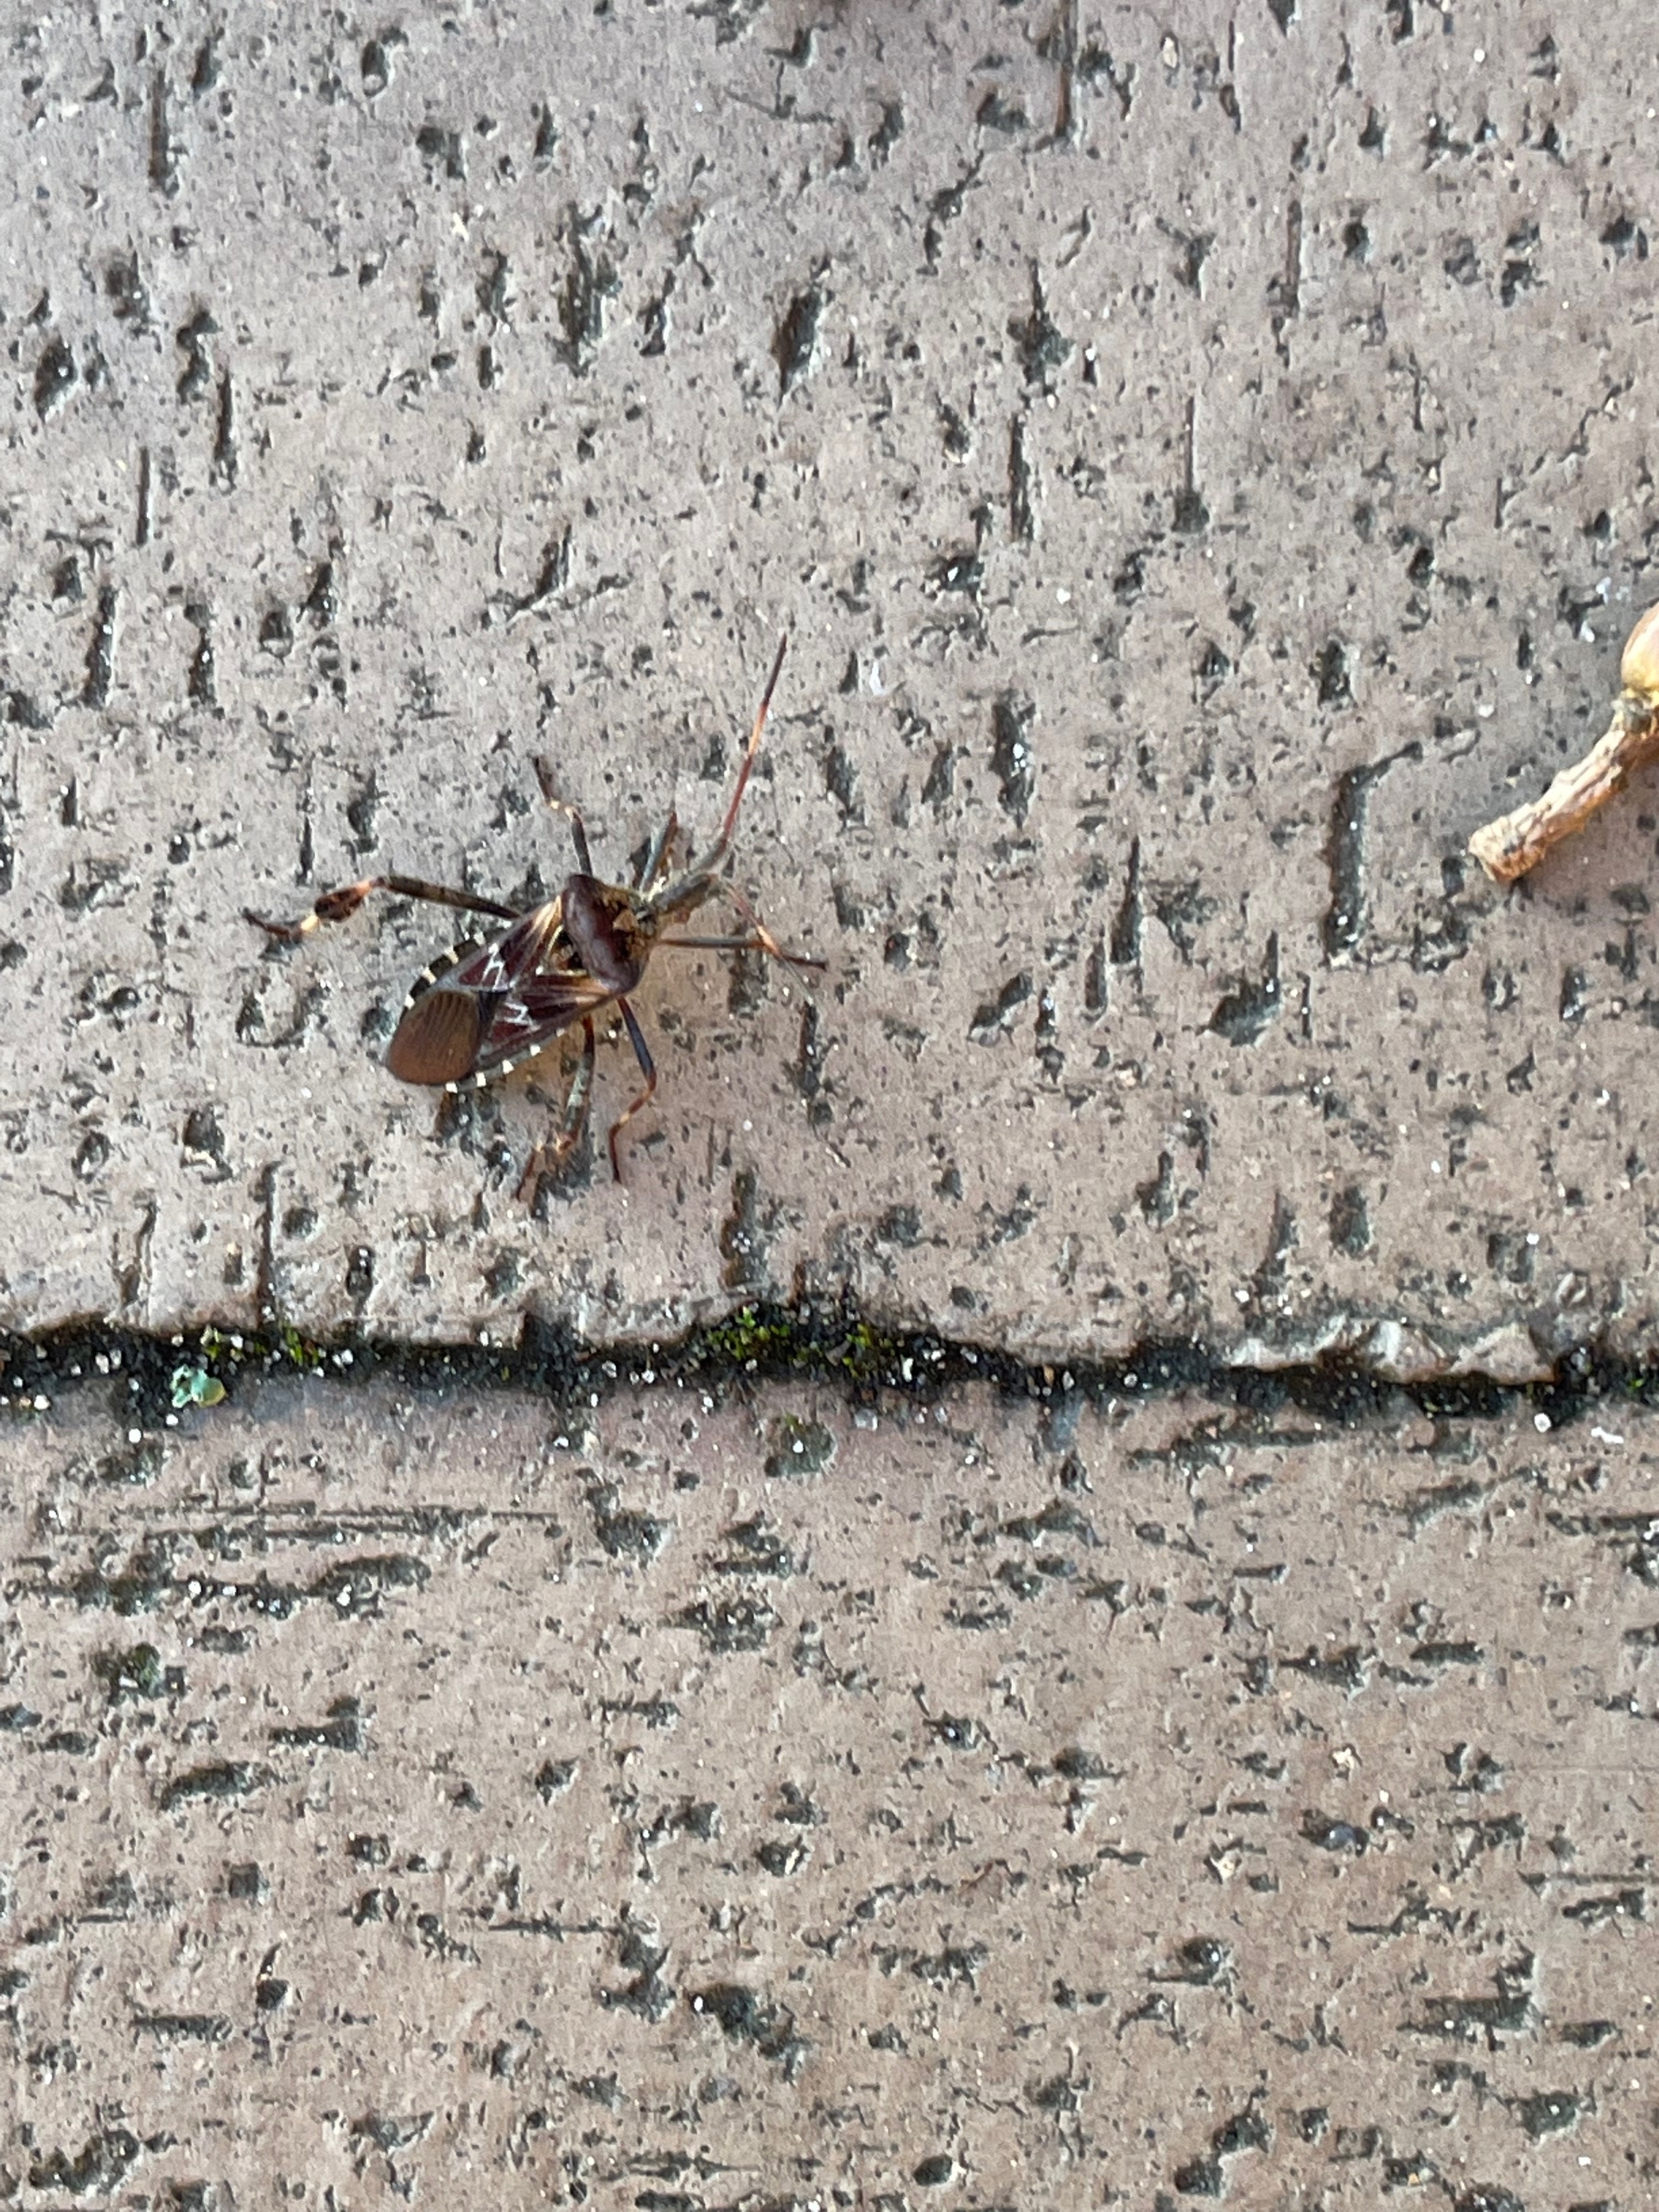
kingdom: Animalia
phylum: Arthropoda
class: Insecta
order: Hemiptera
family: Coreidae
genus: Leptoglossus
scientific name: Leptoglossus occidentalis
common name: Amerikansk fyrretæge
